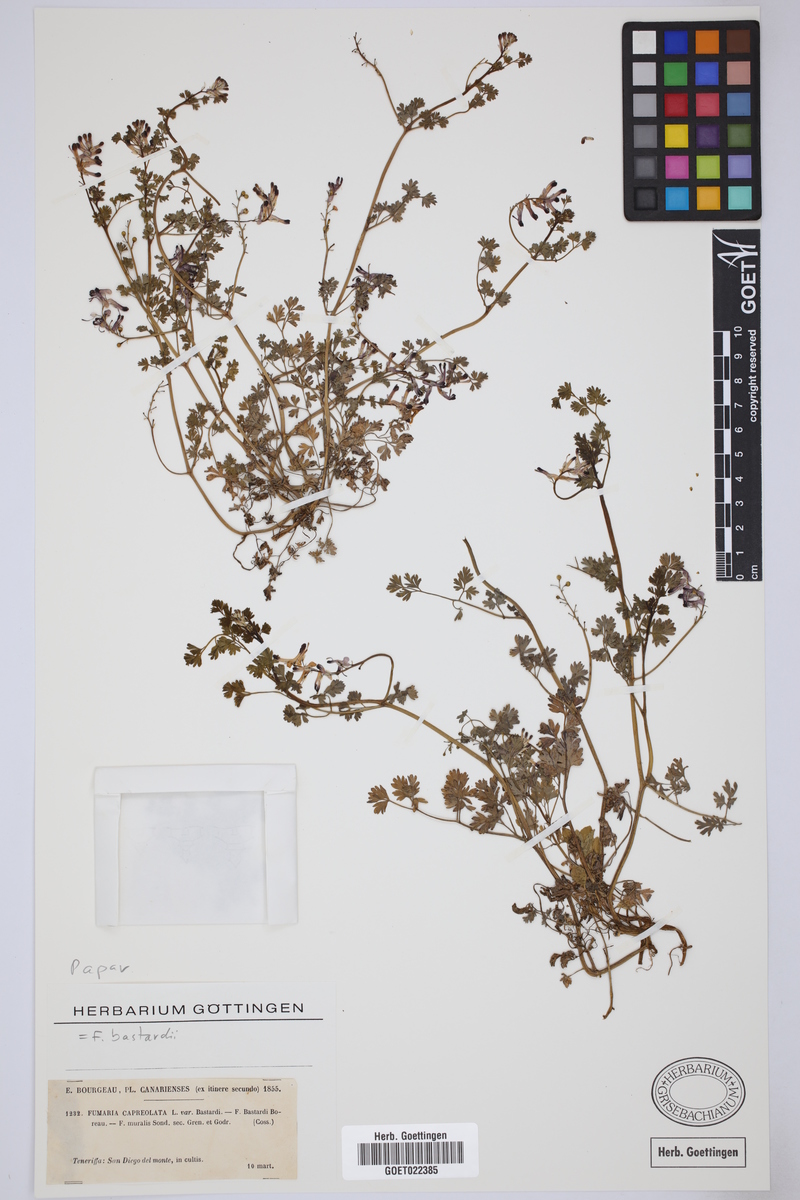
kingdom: Plantae
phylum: Tracheophyta
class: Magnoliopsida
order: Ranunculales
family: Papaveraceae
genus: Fumaria
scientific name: Fumaria bastardii
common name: Tall ramping-fumitory
